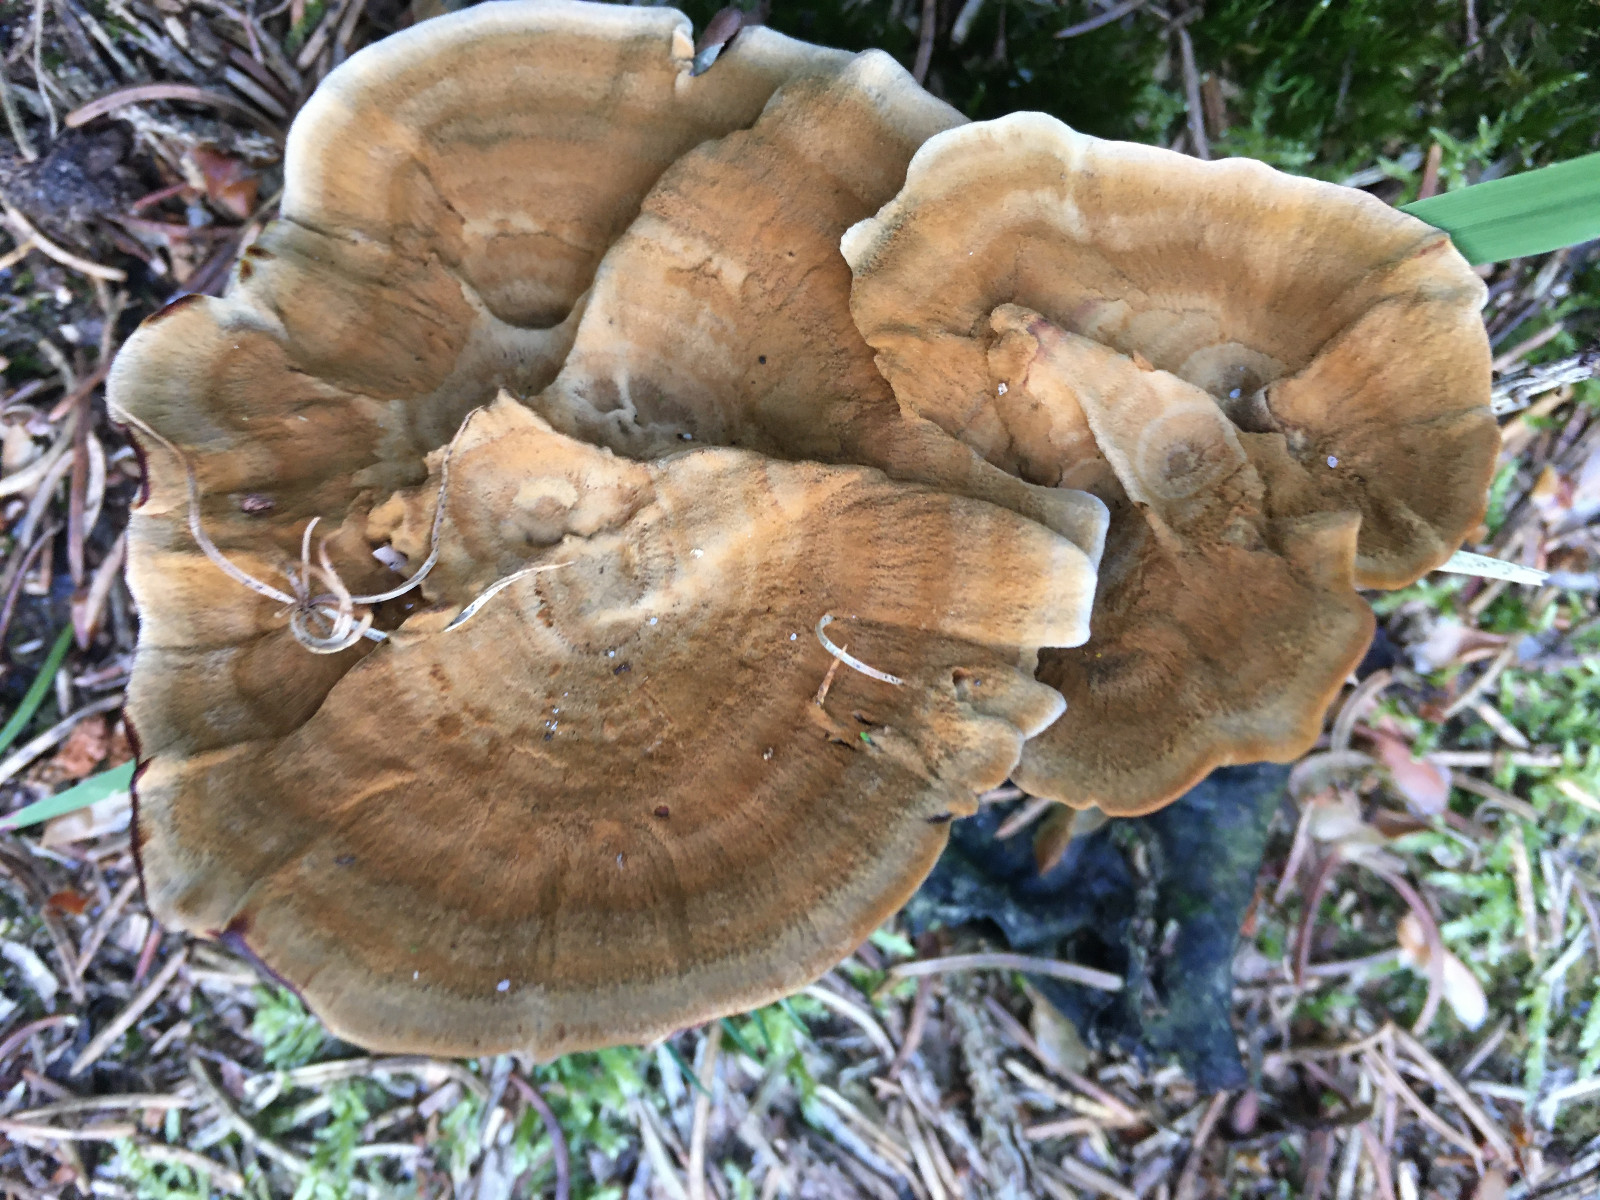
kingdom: Fungi
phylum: Basidiomycota
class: Agaricomycetes
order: Hymenochaetales
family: Hymenochaetaceae
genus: Coltricia
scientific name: Coltricia perennis
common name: almindelig sandporesvamp
